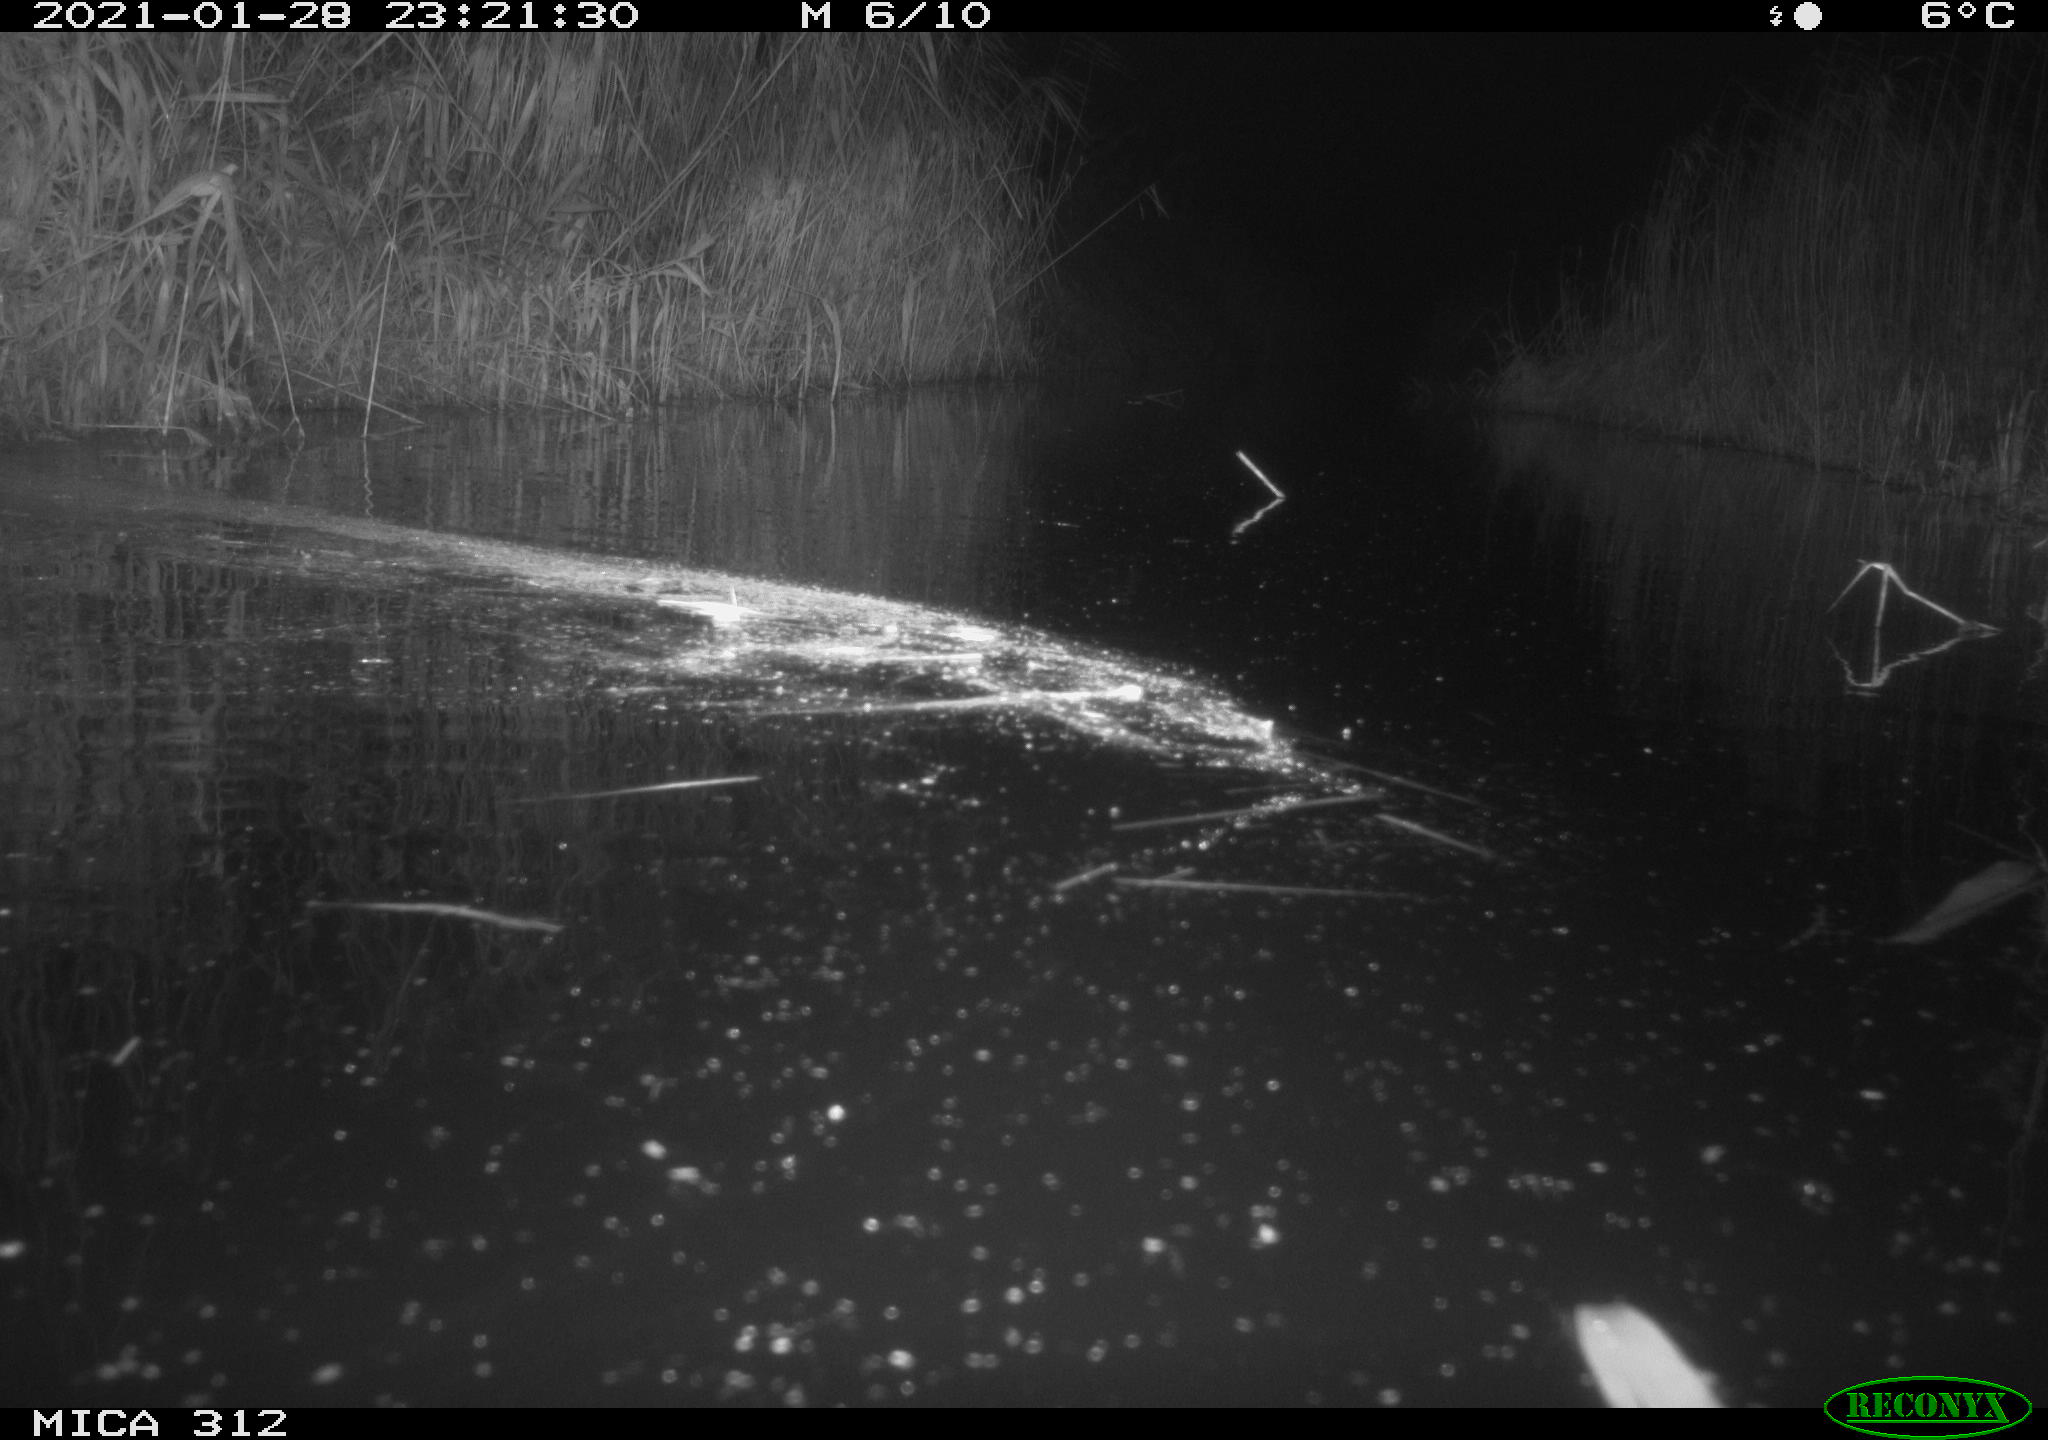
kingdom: Animalia
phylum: Chordata
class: Mammalia
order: Rodentia
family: Muridae
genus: Rattus
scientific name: Rattus norvegicus
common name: Brown rat
